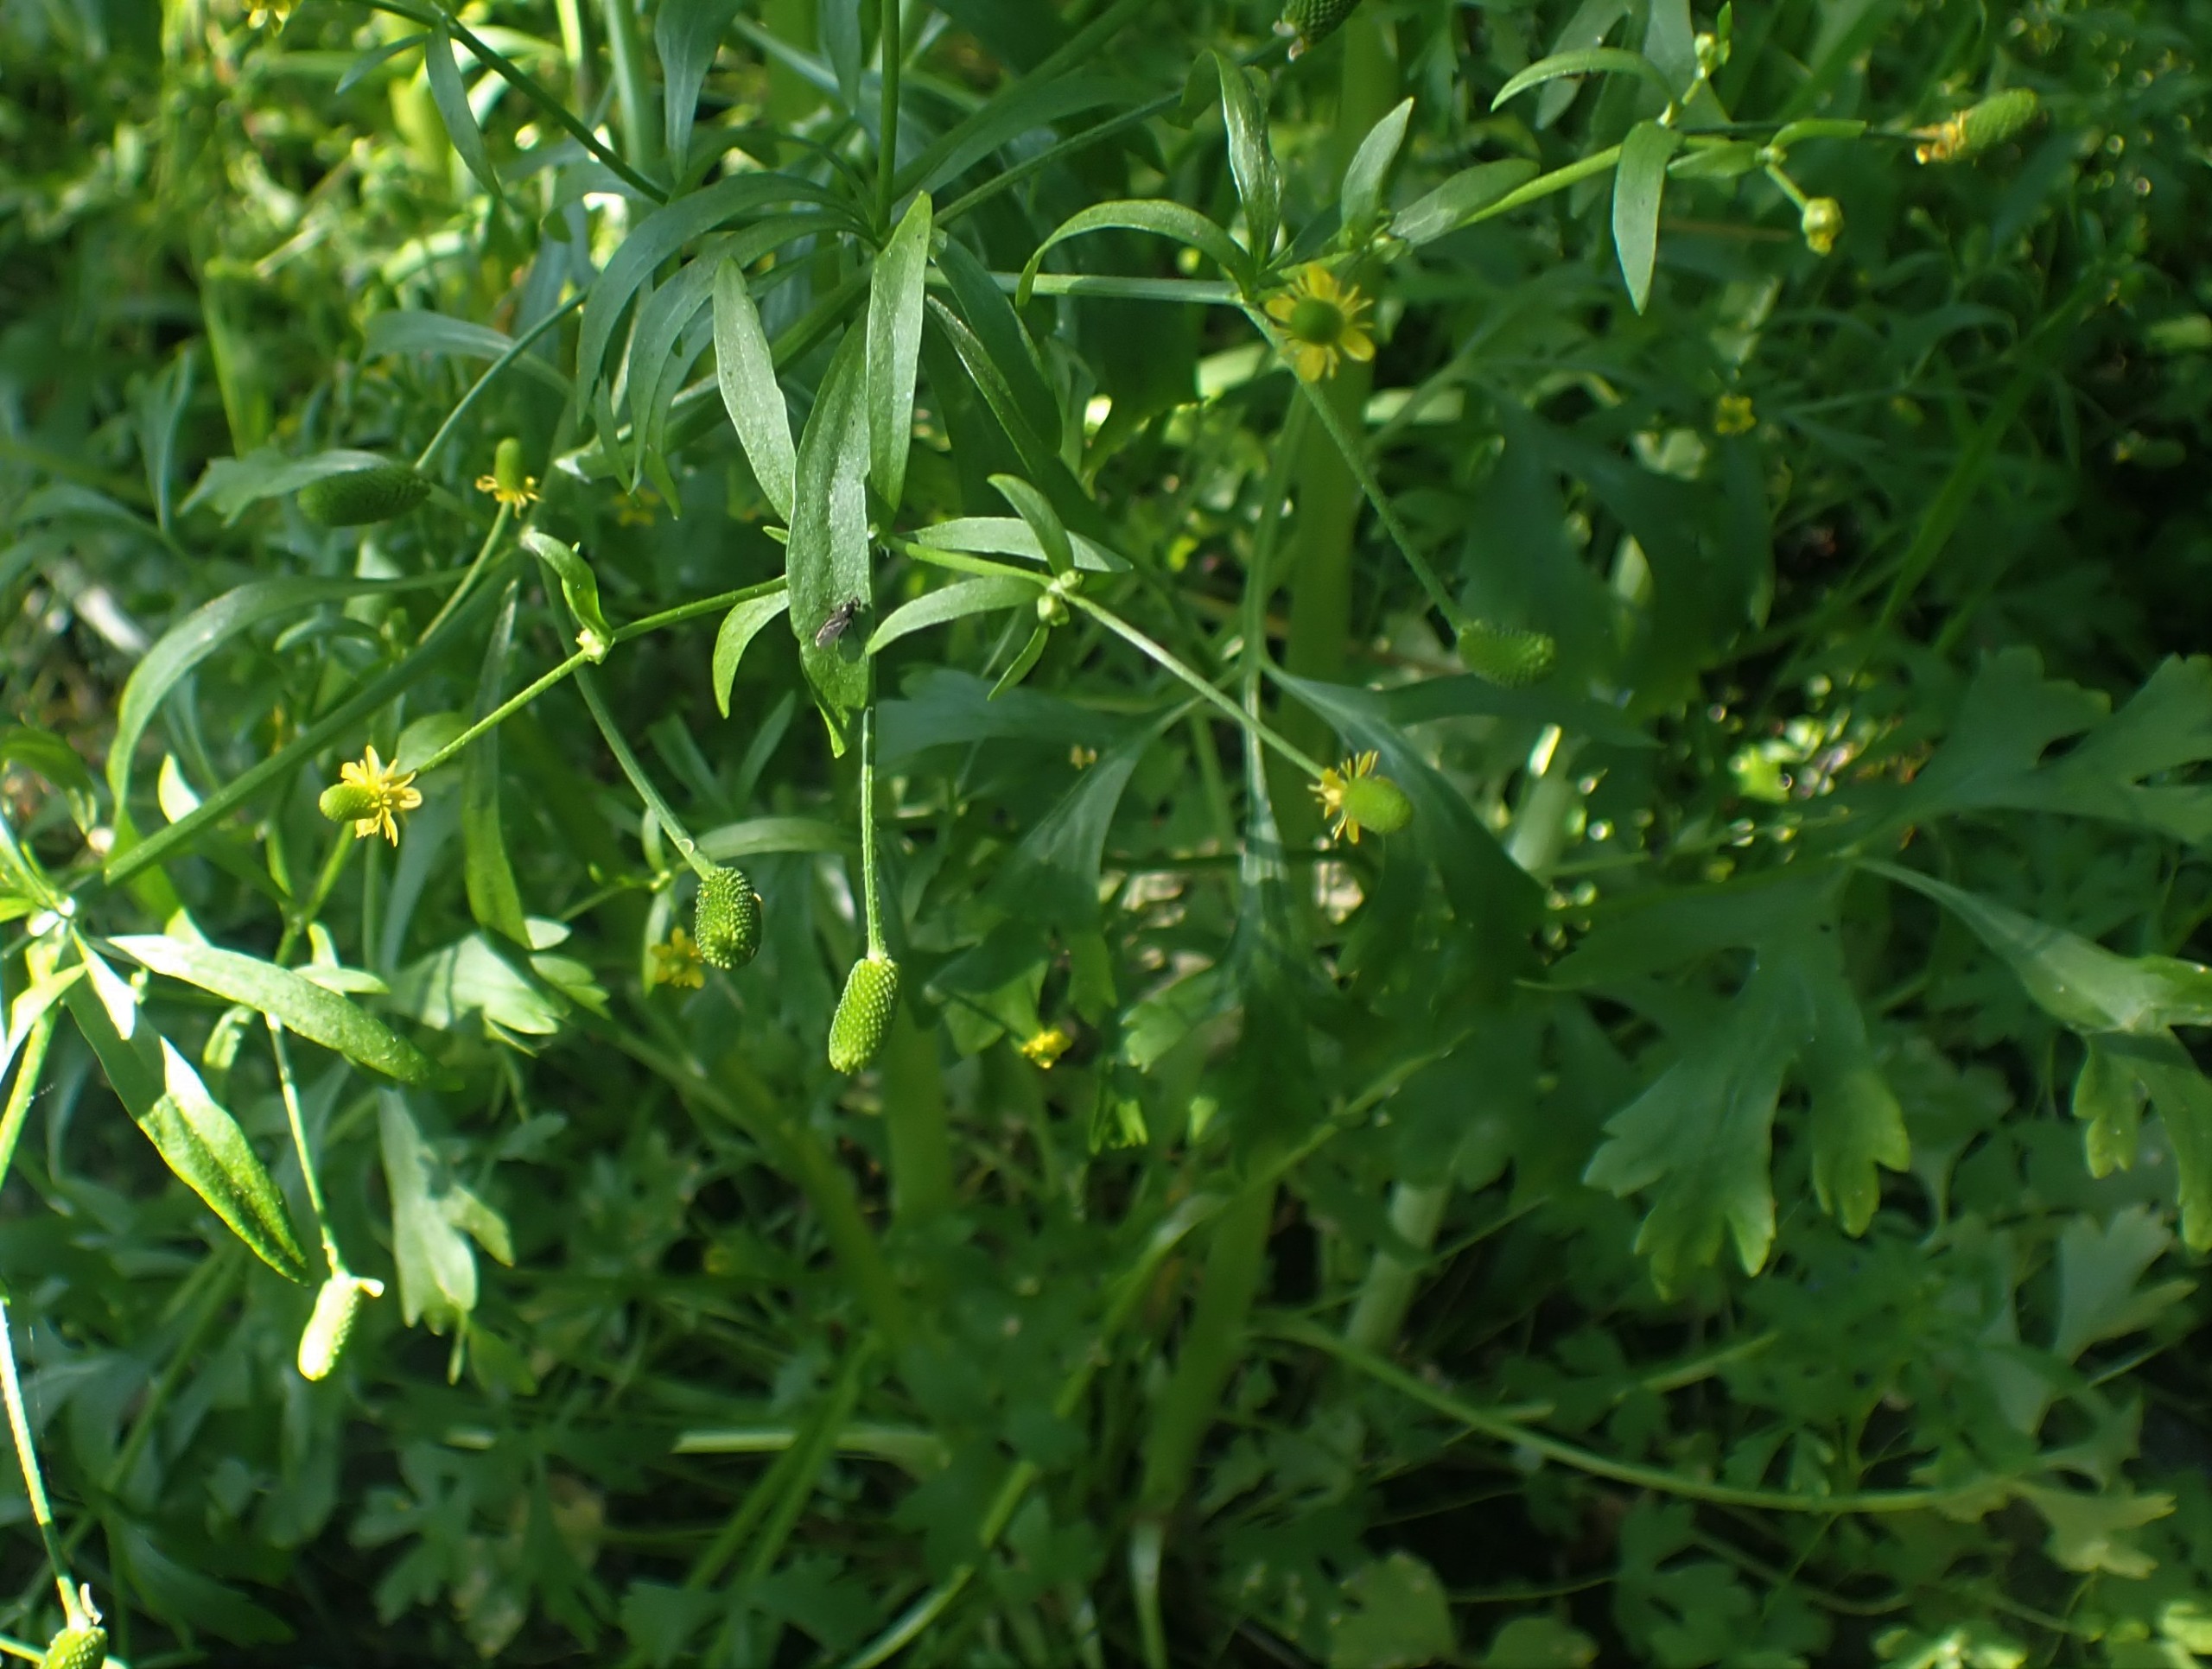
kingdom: Plantae
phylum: Tracheophyta
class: Magnoliopsida
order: Ranunculales
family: Ranunculaceae
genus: Ranunculus
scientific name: Ranunculus sceleratus
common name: Tigger-ranunkel
